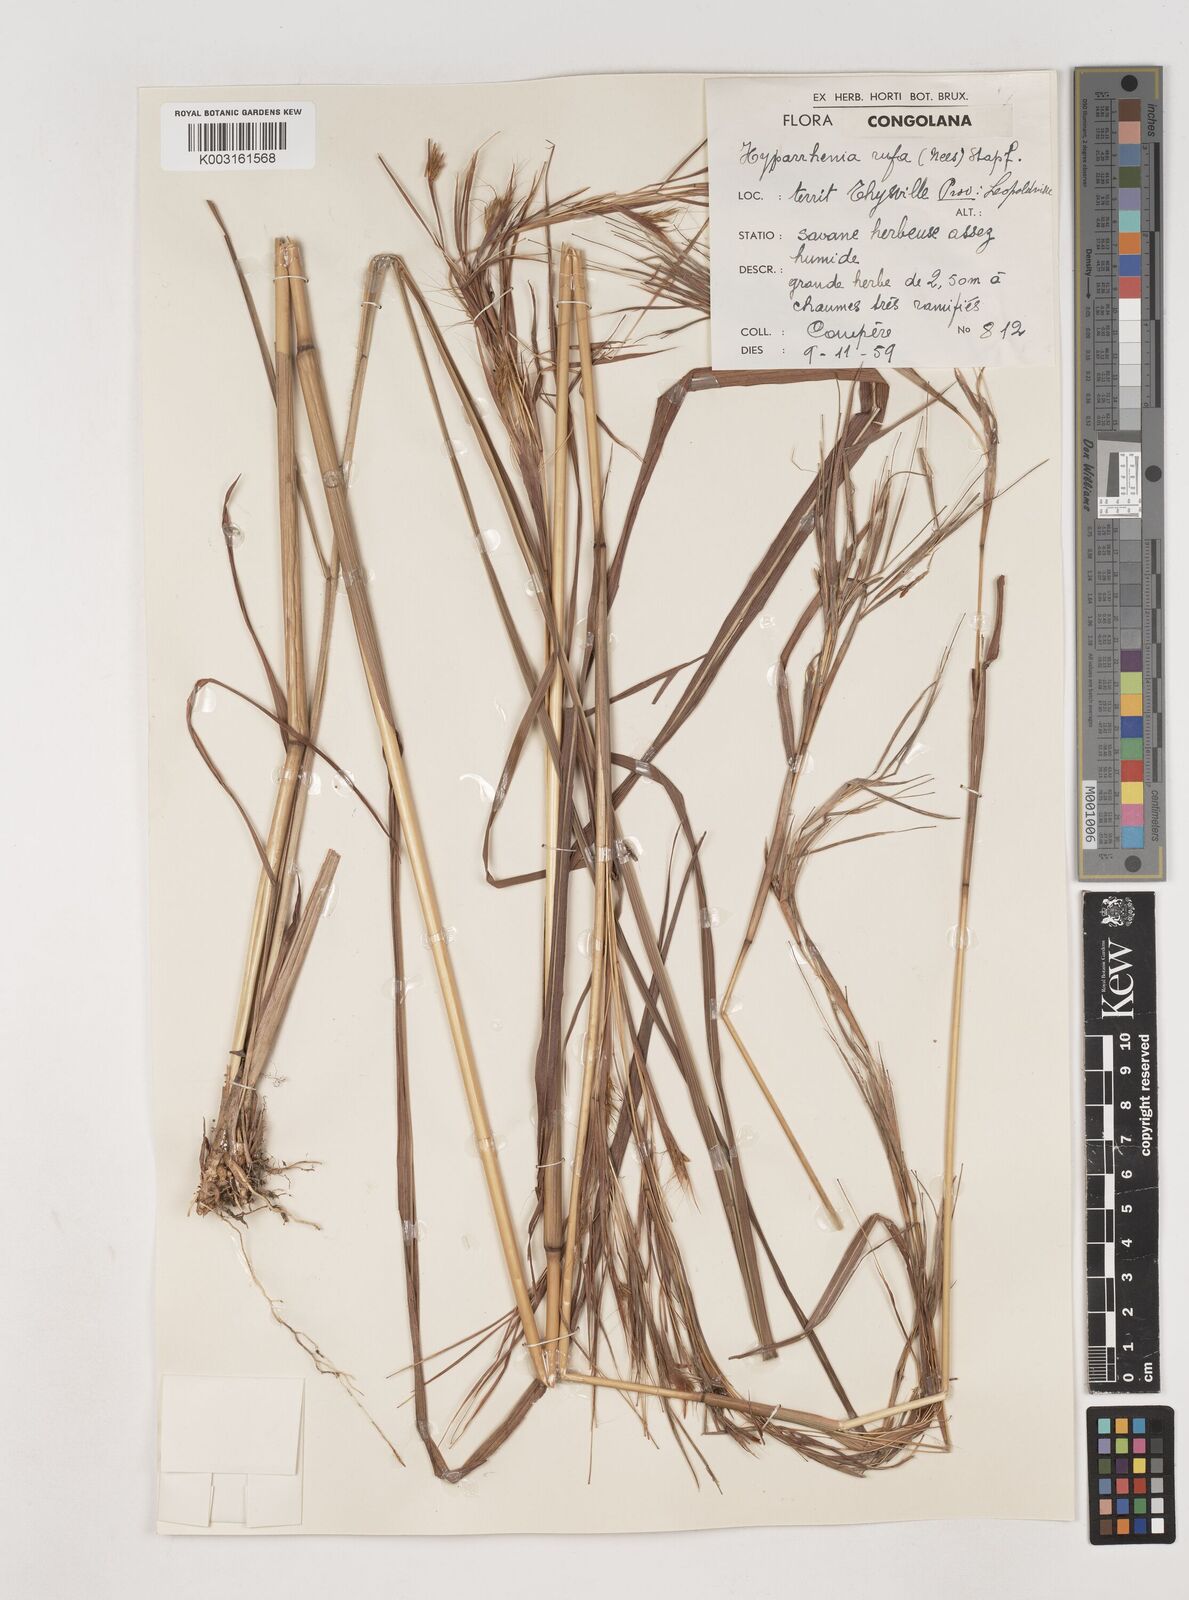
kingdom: Plantae
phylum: Tracheophyta
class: Liliopsida
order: Poales
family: Poaceae
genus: Hyparrhenia
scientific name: Hyparrhenia rufa
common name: Jaraguagrass
